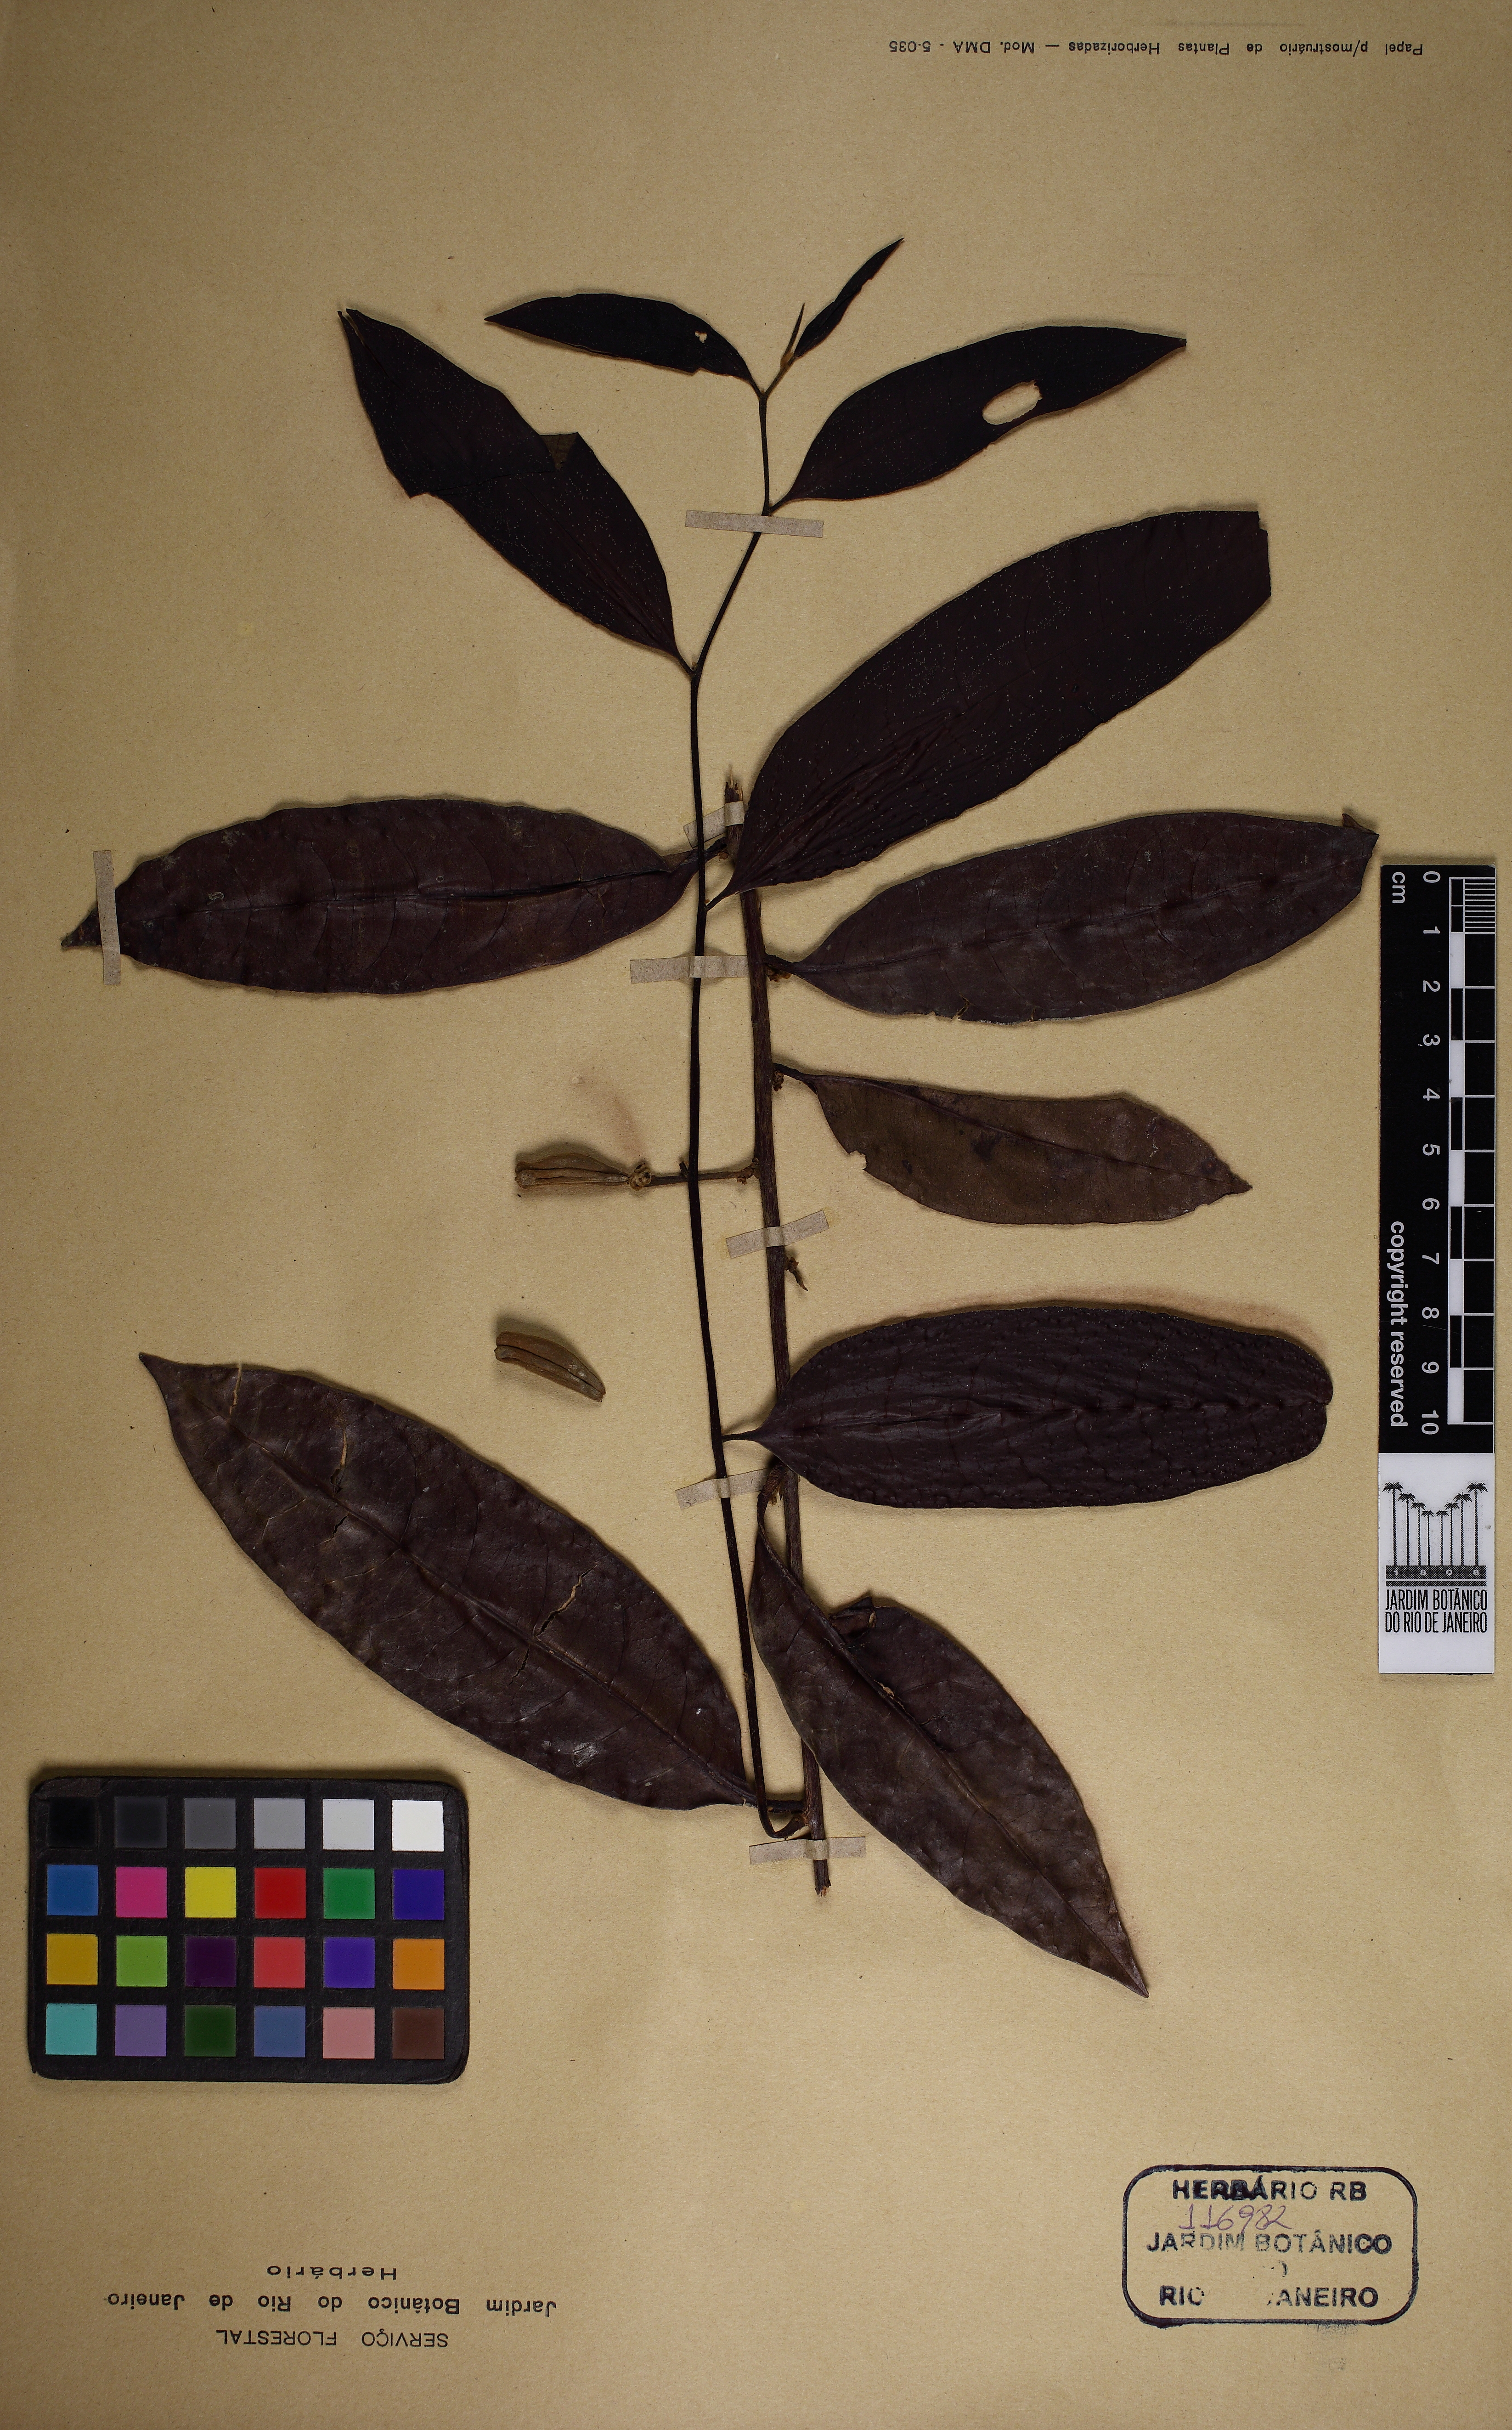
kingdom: Plantae
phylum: Tracheophyta
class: Magnoliopsida
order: Malpighiales
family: Peraceae
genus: Pera
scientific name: Pera distichophylla
